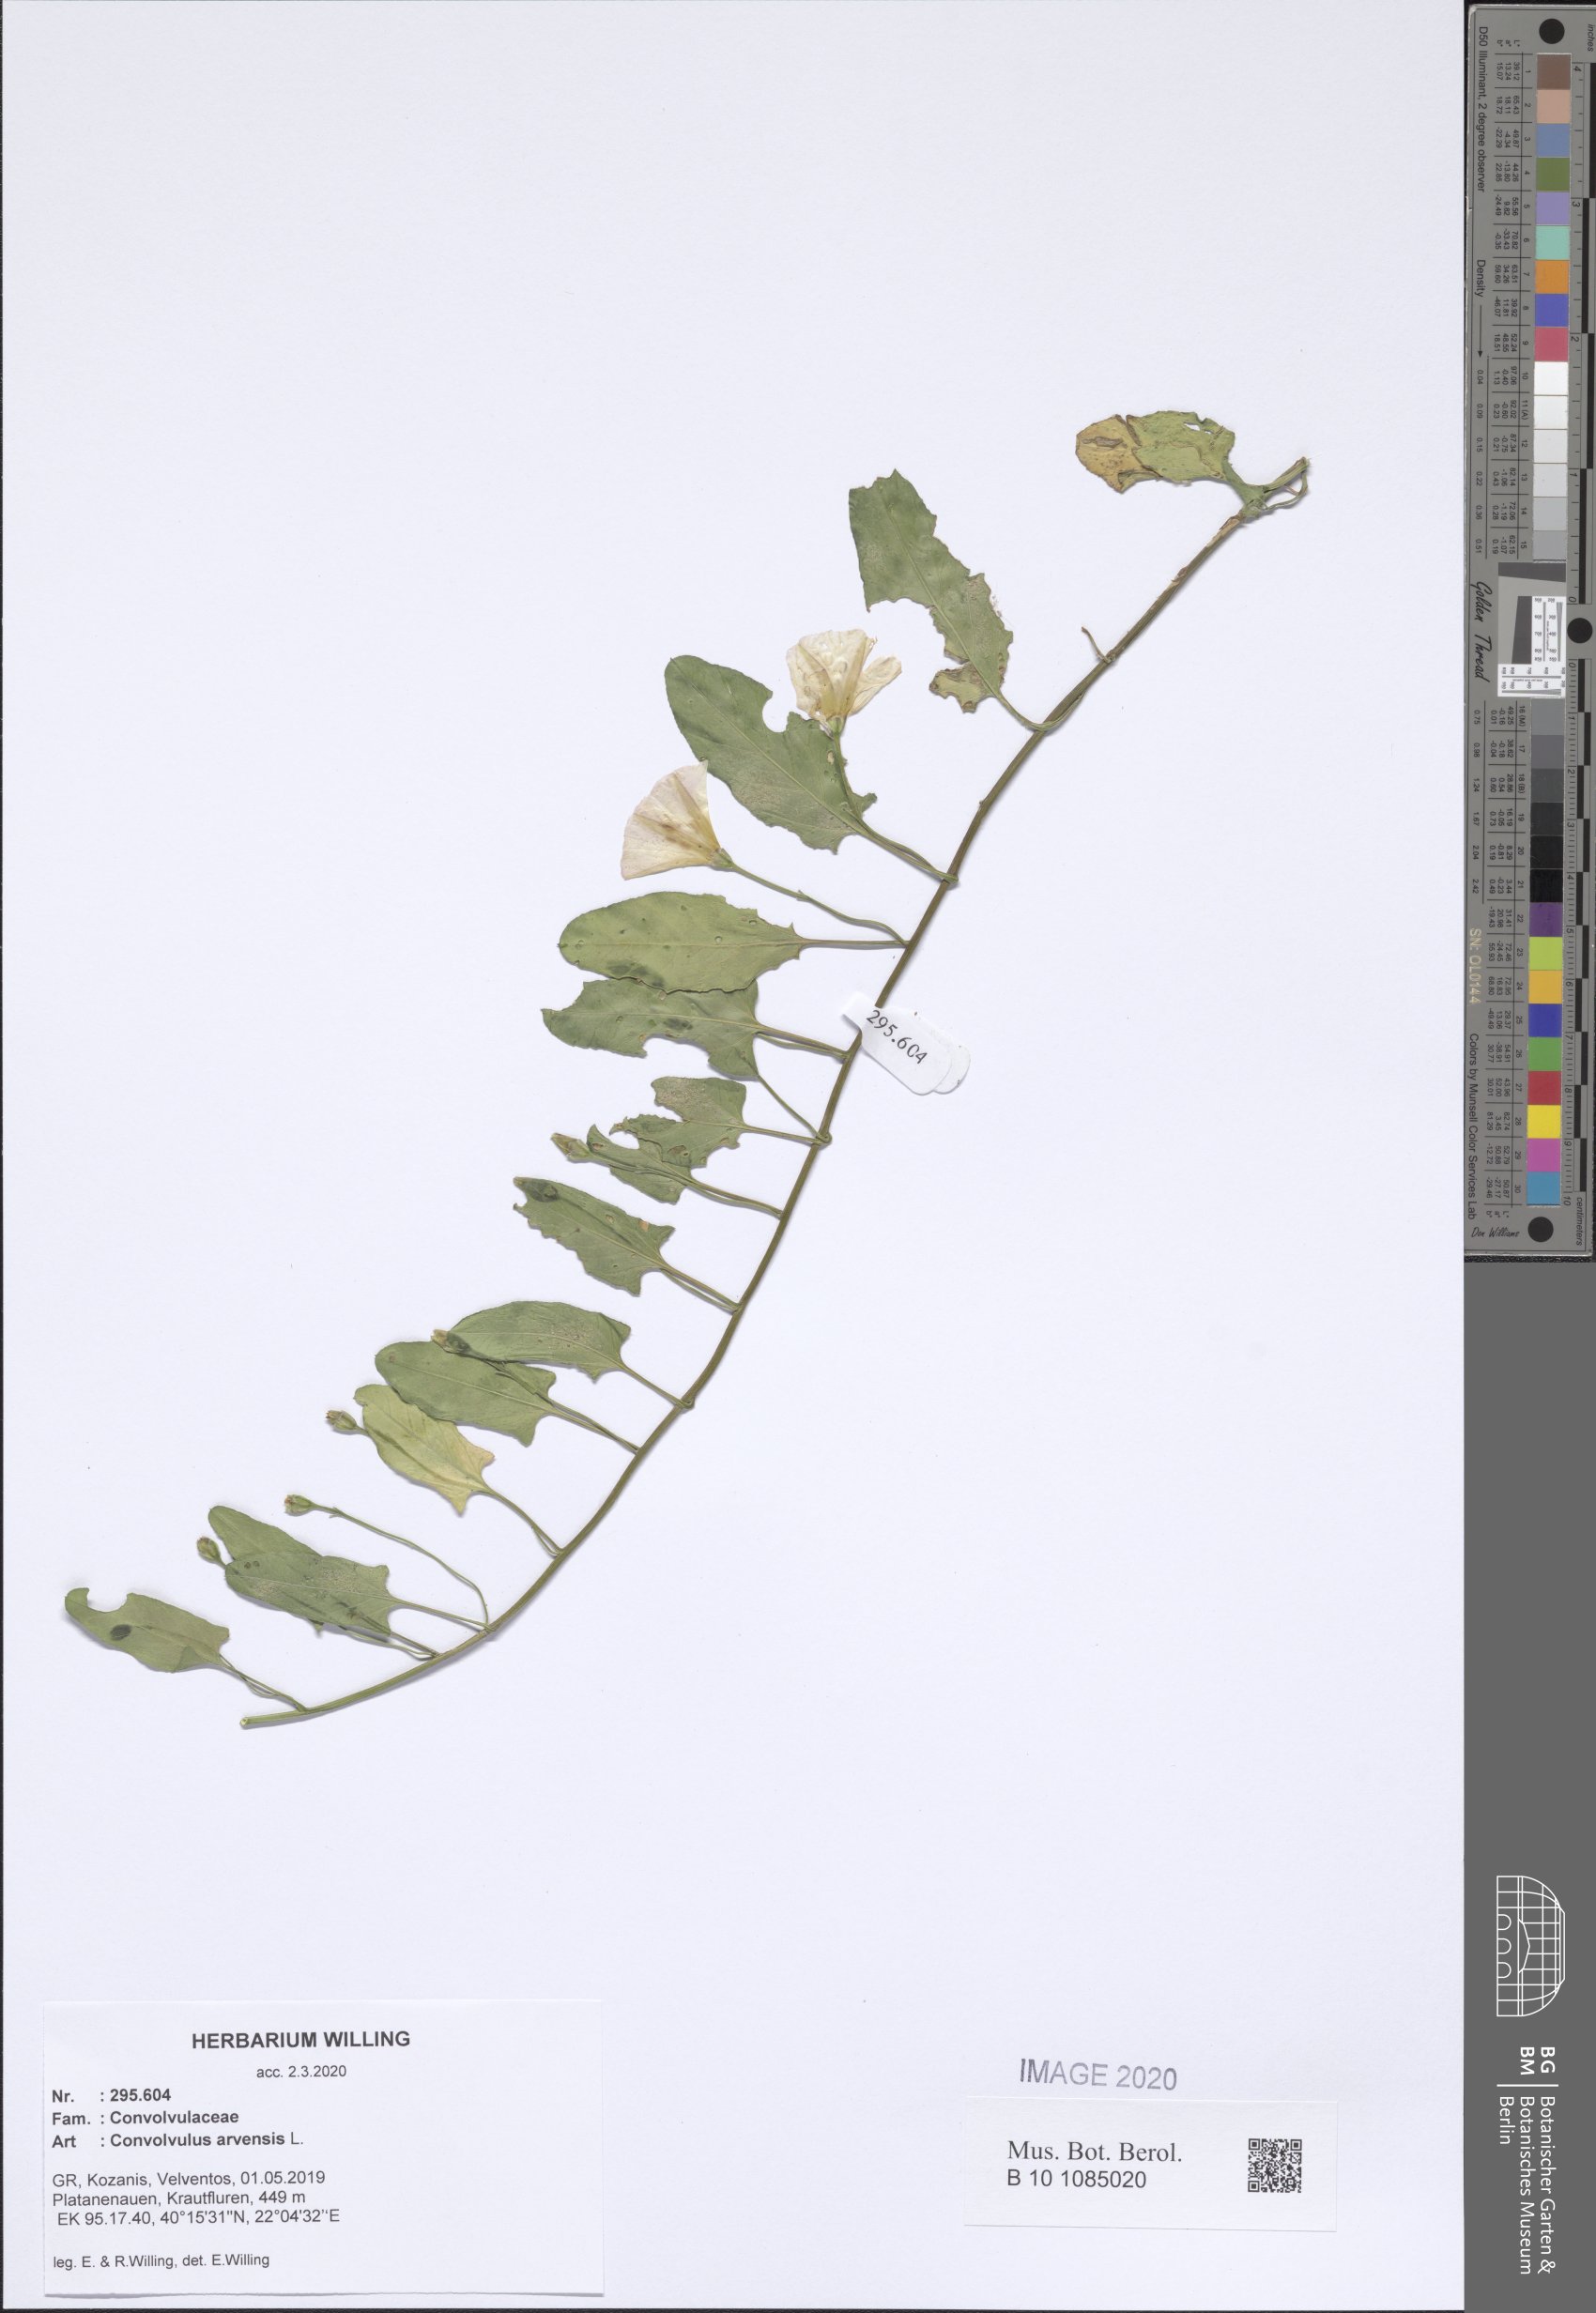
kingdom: Plantae
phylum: Tracheophyta
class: Magnoliopsida
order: Solanales
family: Convolvulaceae
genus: Convolvulus
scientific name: Convolvulus arvensis
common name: Field bindweed
